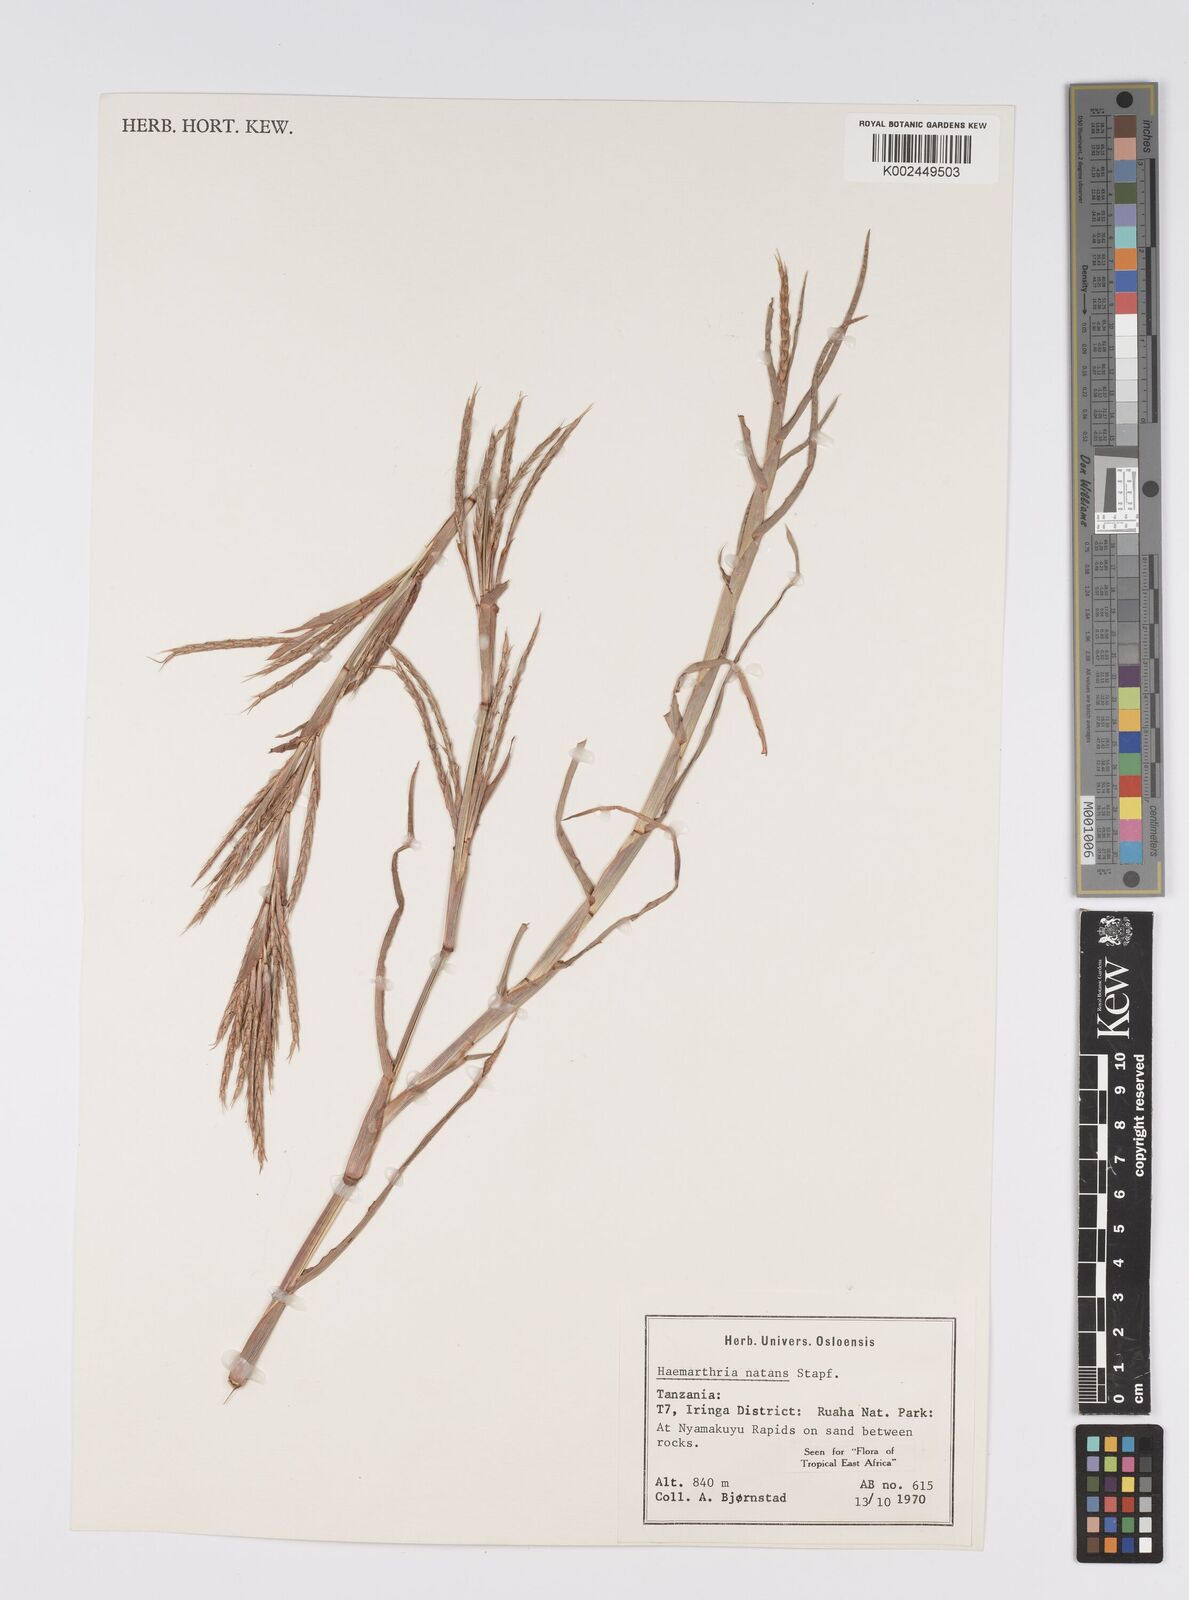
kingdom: Plantae
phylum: Tracheophyta
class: Liliopsida
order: Poales
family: Poaceae
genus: Hemarthria
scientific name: Hemarthria natans
